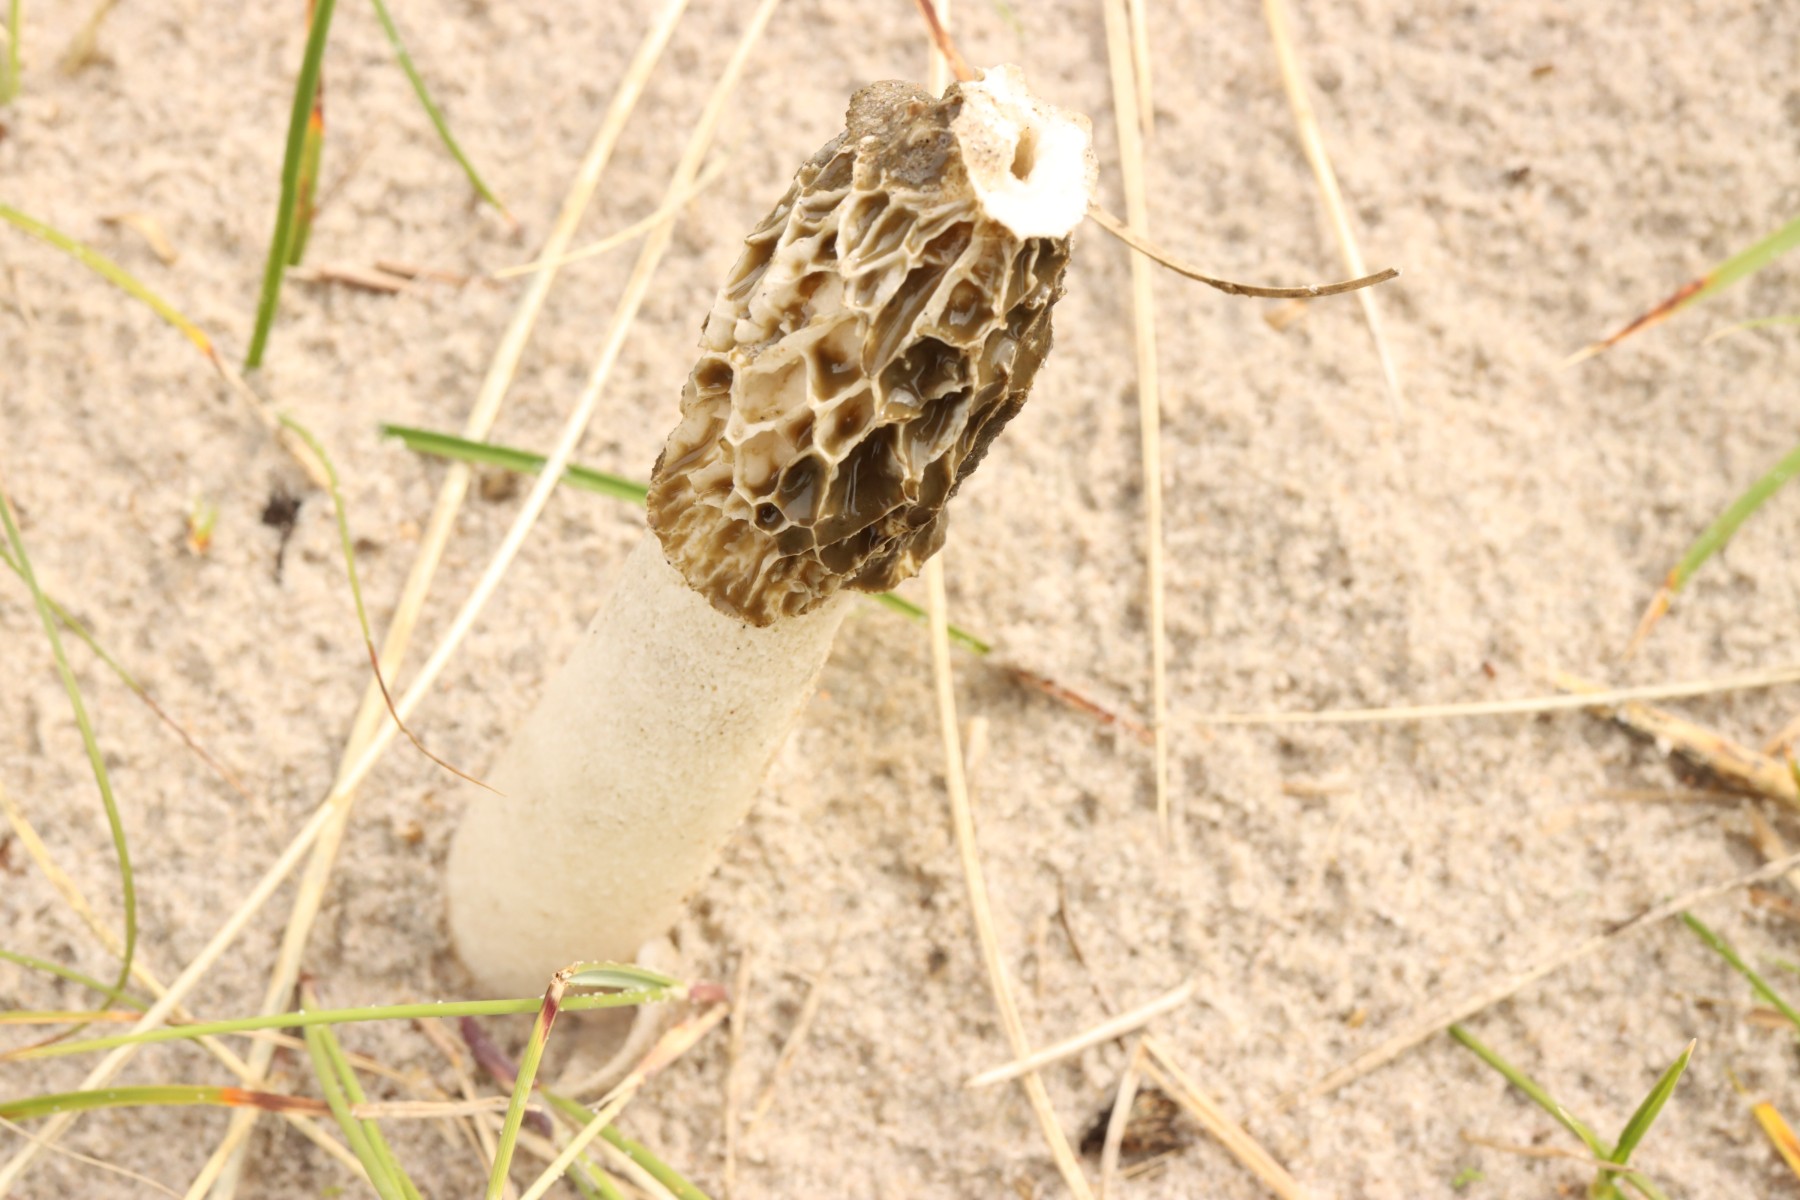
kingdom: Fungi
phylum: Basidiomycota
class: Agaricomycetes
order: Phallales
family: Phallaceae
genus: Phallus
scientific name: Phallus hadriani
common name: sand-stinksvamp
